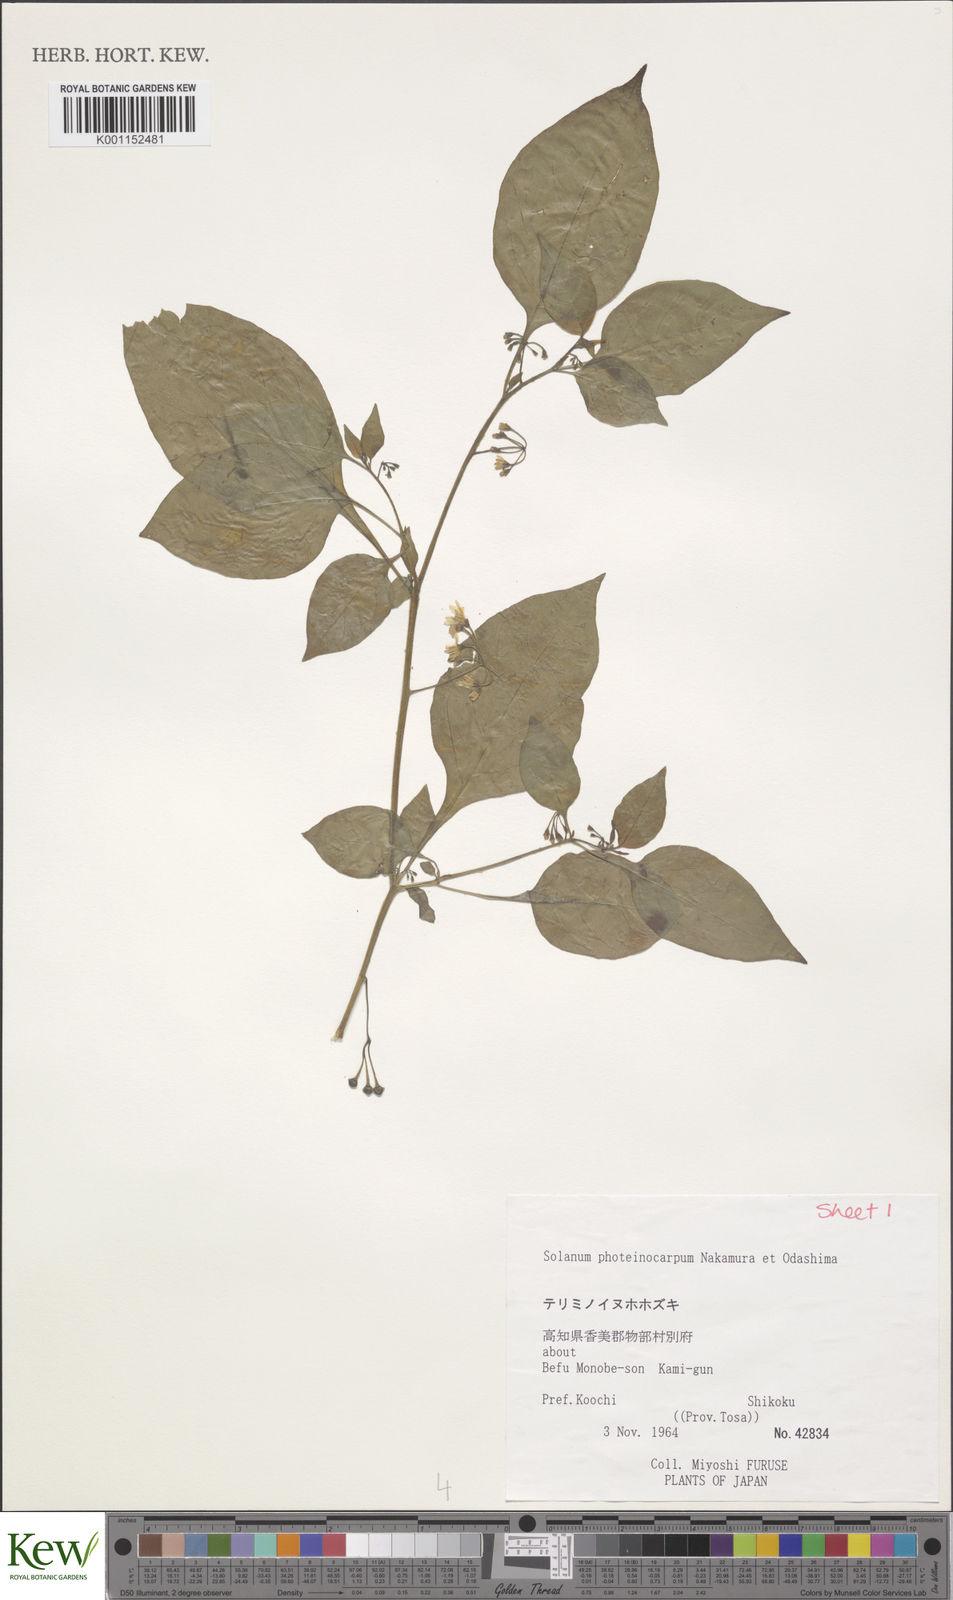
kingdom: Plantae
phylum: Tracheophyta
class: Magnoliopsida
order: Solanales
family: Solanaceae
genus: Solanum
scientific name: Solanum americanum
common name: American black nightshade
